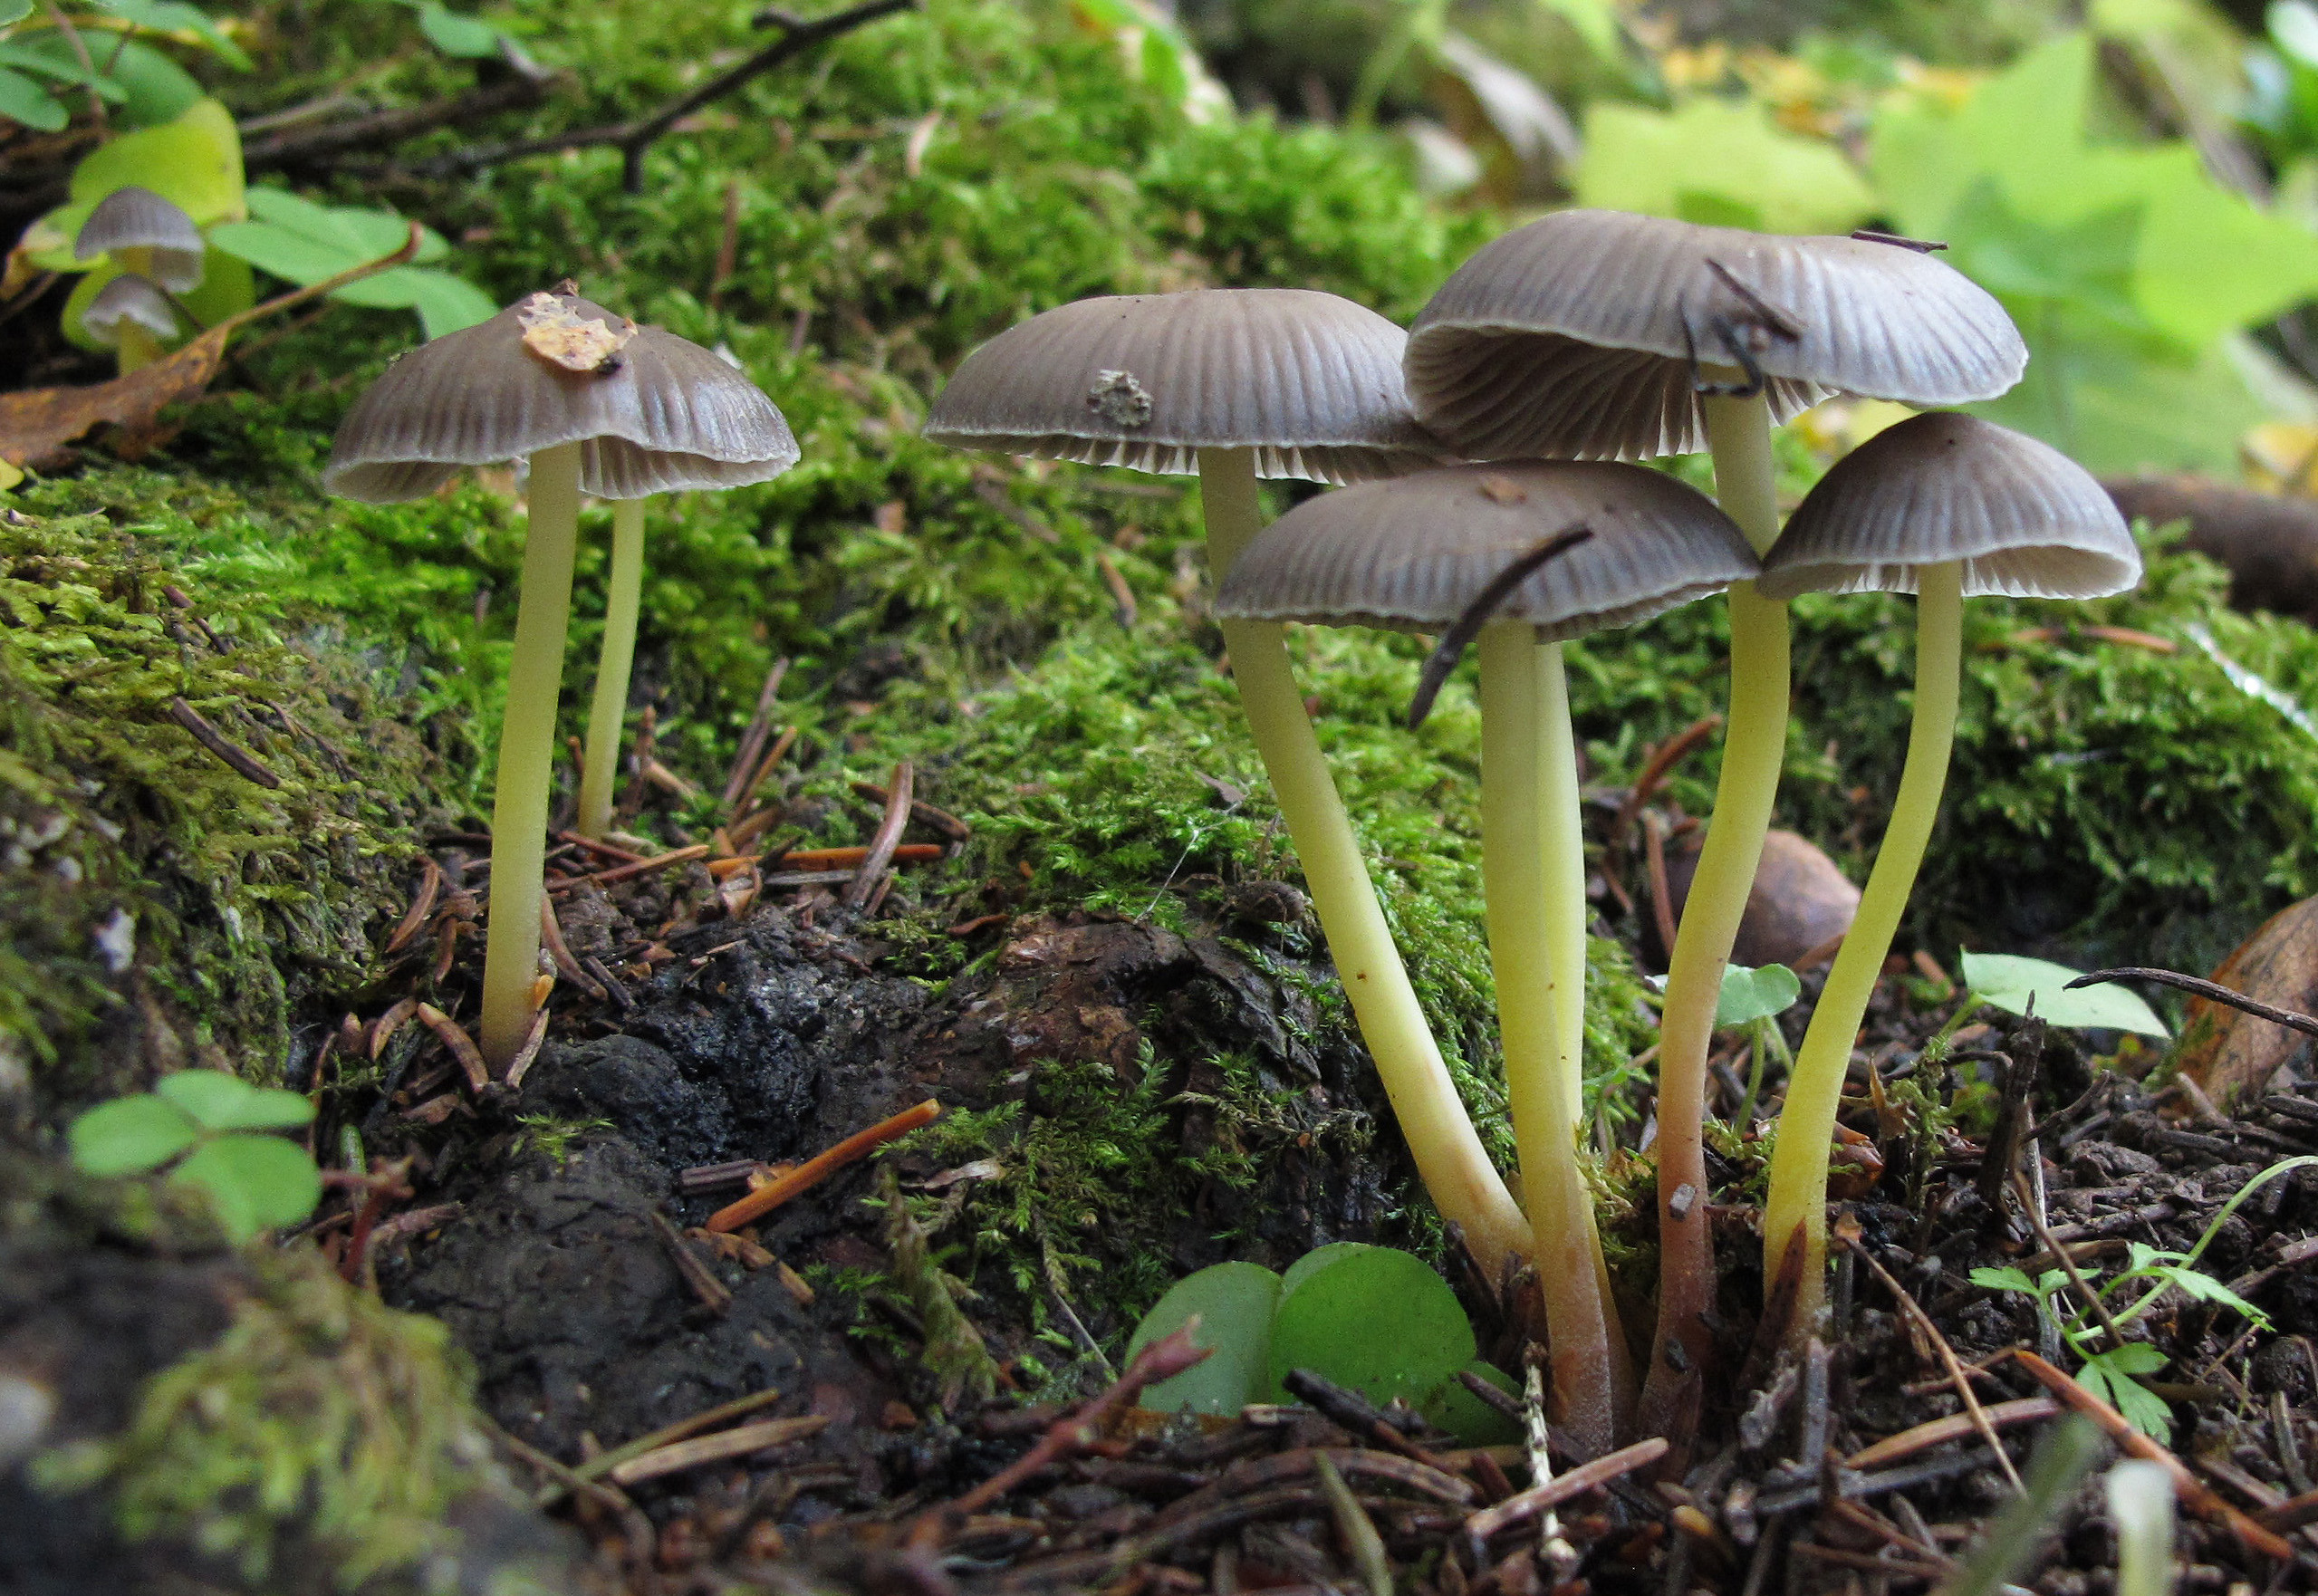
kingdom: Fungi
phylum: Basidiomycota
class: Agaricomycetes
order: Agaricales
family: Mycenaceae
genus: Mycena
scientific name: Mycena epipterygia
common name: Yellowleg bonnet
